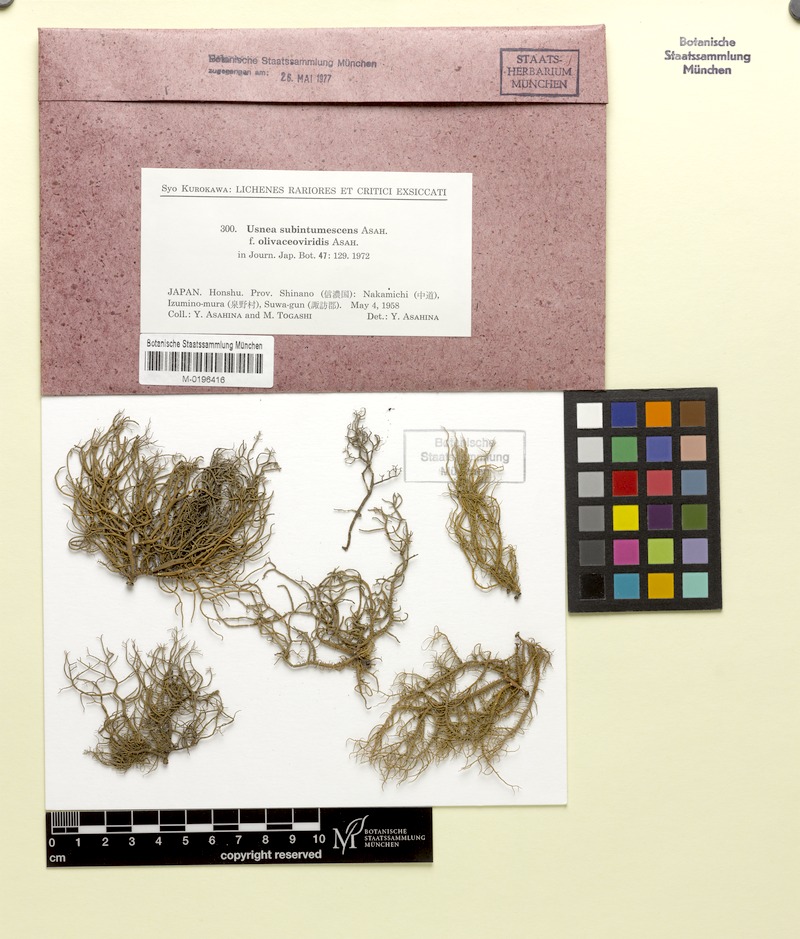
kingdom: Fungi
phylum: Ascomycota
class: Lecanoromycetes
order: Lecanorales
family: Parmeliaceae
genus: Usnea
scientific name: Usnea subintumescens
